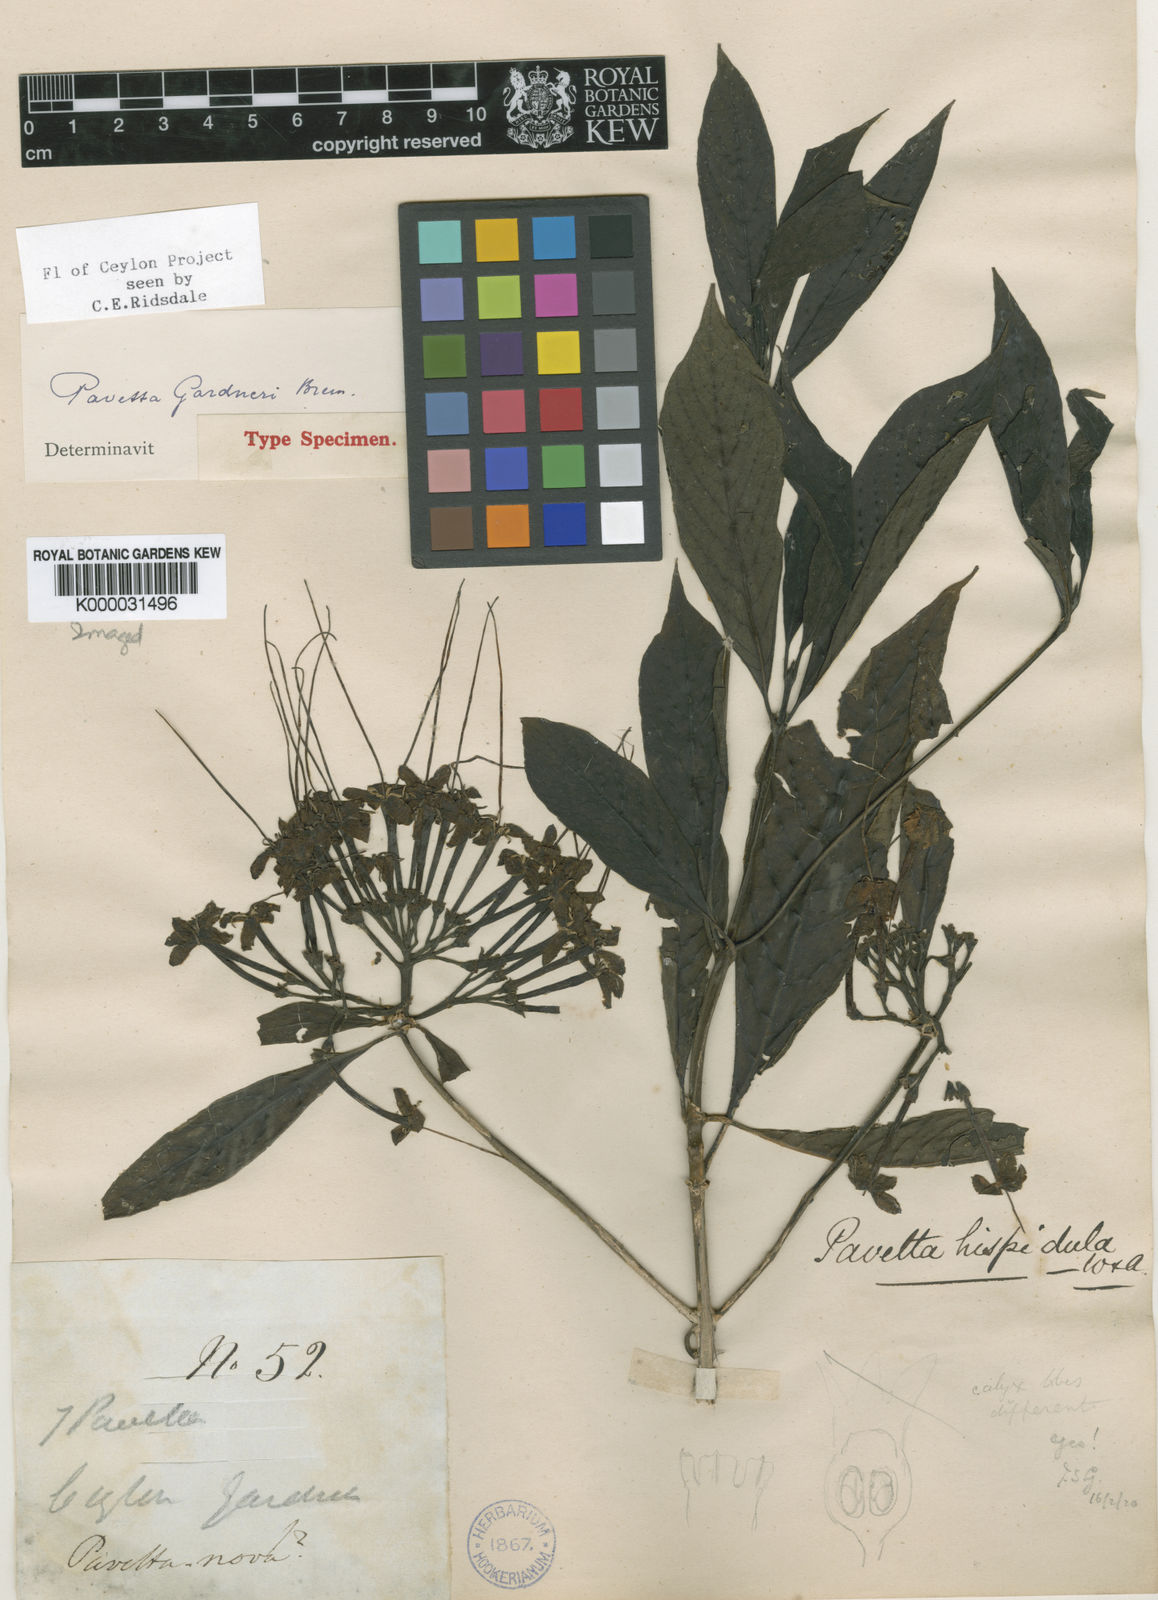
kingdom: Plantae
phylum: Tracheophyta
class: Magnoliopsida
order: Gentianales
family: Rubiaceae
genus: Pavetta
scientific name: Pavetta gardneri
